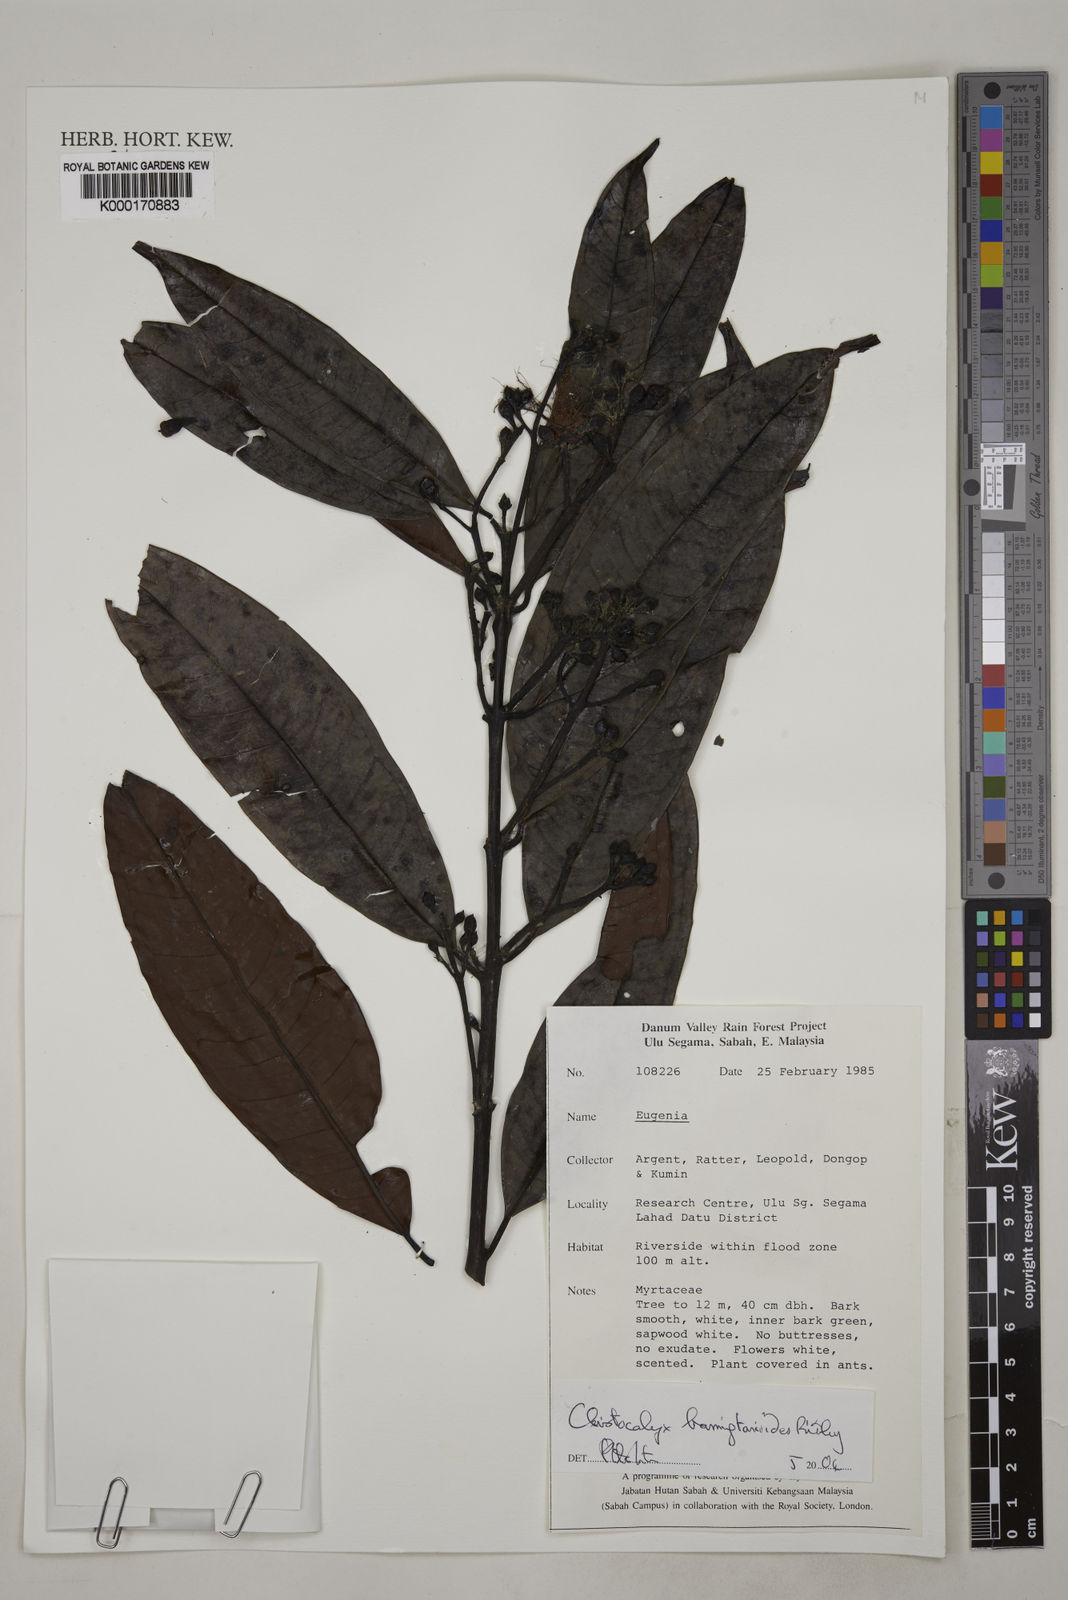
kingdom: Plantae
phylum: Tracheophyta
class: Magnoliopsida
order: Myrtales
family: Myrtaceae
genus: Syzygium
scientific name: Syzygium
